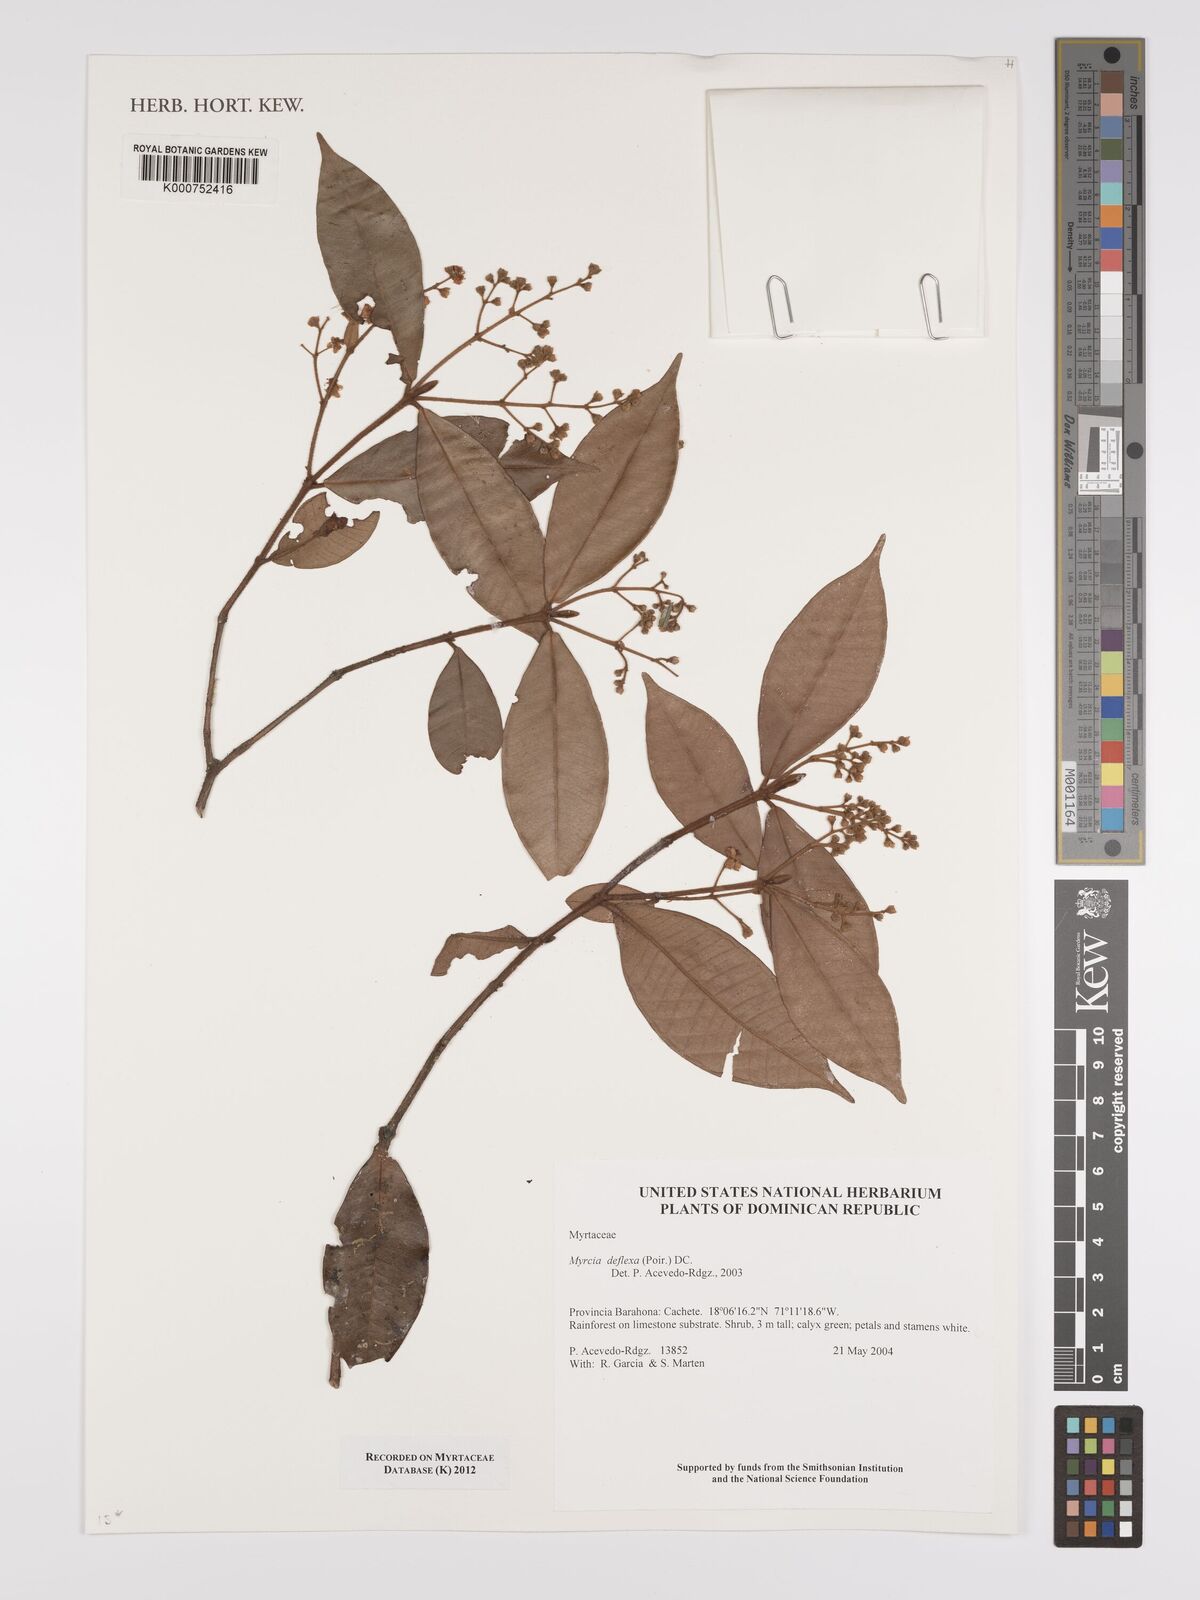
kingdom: Plantae
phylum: Tracheophyta
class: Magnoliopsida
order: Myrtales
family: Myrtaceae
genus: Myrcia
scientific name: Myrcia deflexa
